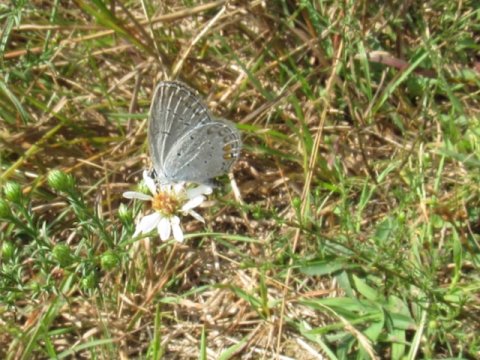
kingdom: Animalia
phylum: Arthropoda
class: Insecta
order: Lepidoptera
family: Lycaenidae
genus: Elkalyce
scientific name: Elkalyce comyntas
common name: Eastern Tailed-Blue
